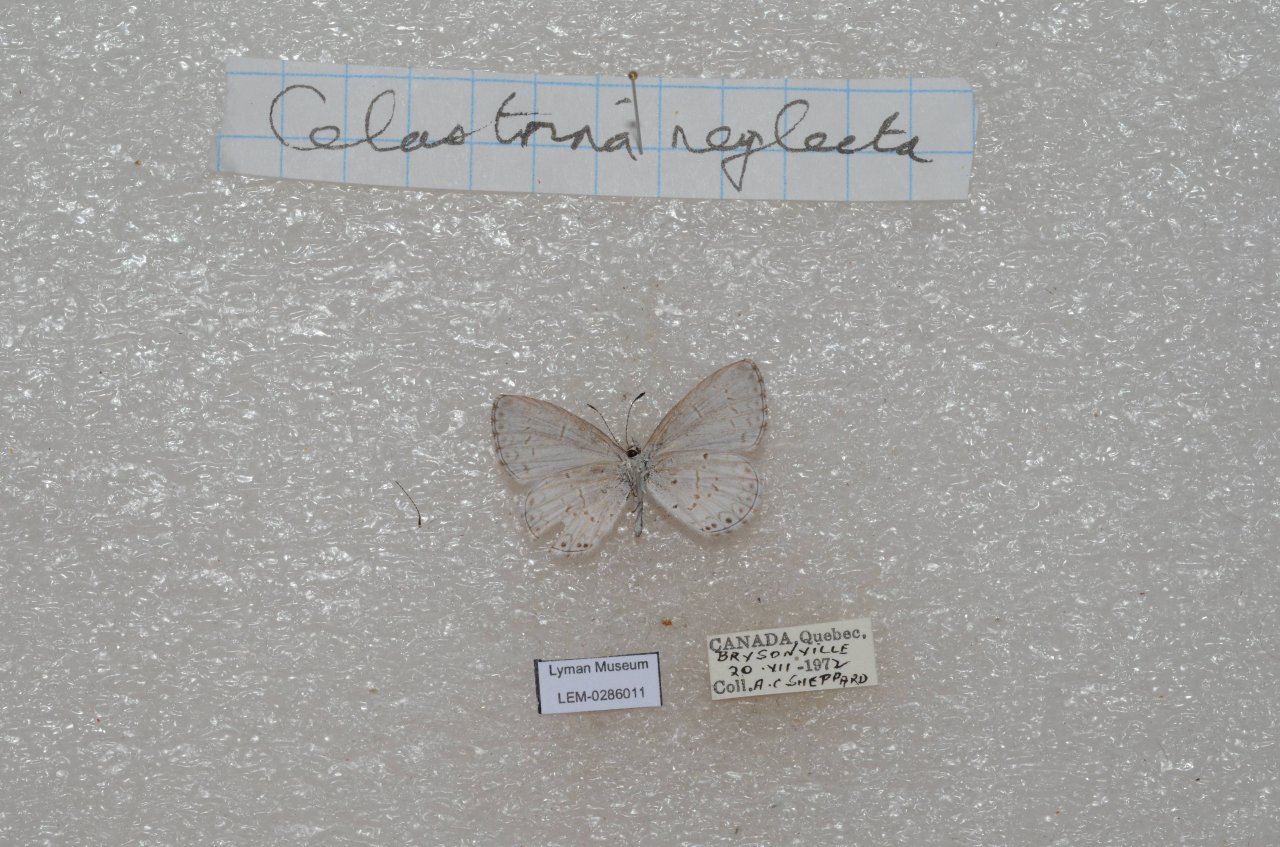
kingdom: Animalia
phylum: Arthropoda
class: Insecta
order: Lepidoptera
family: Lycaenidae
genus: Celastrina
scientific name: Celastrina lucia
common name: Northern Spring Azure
